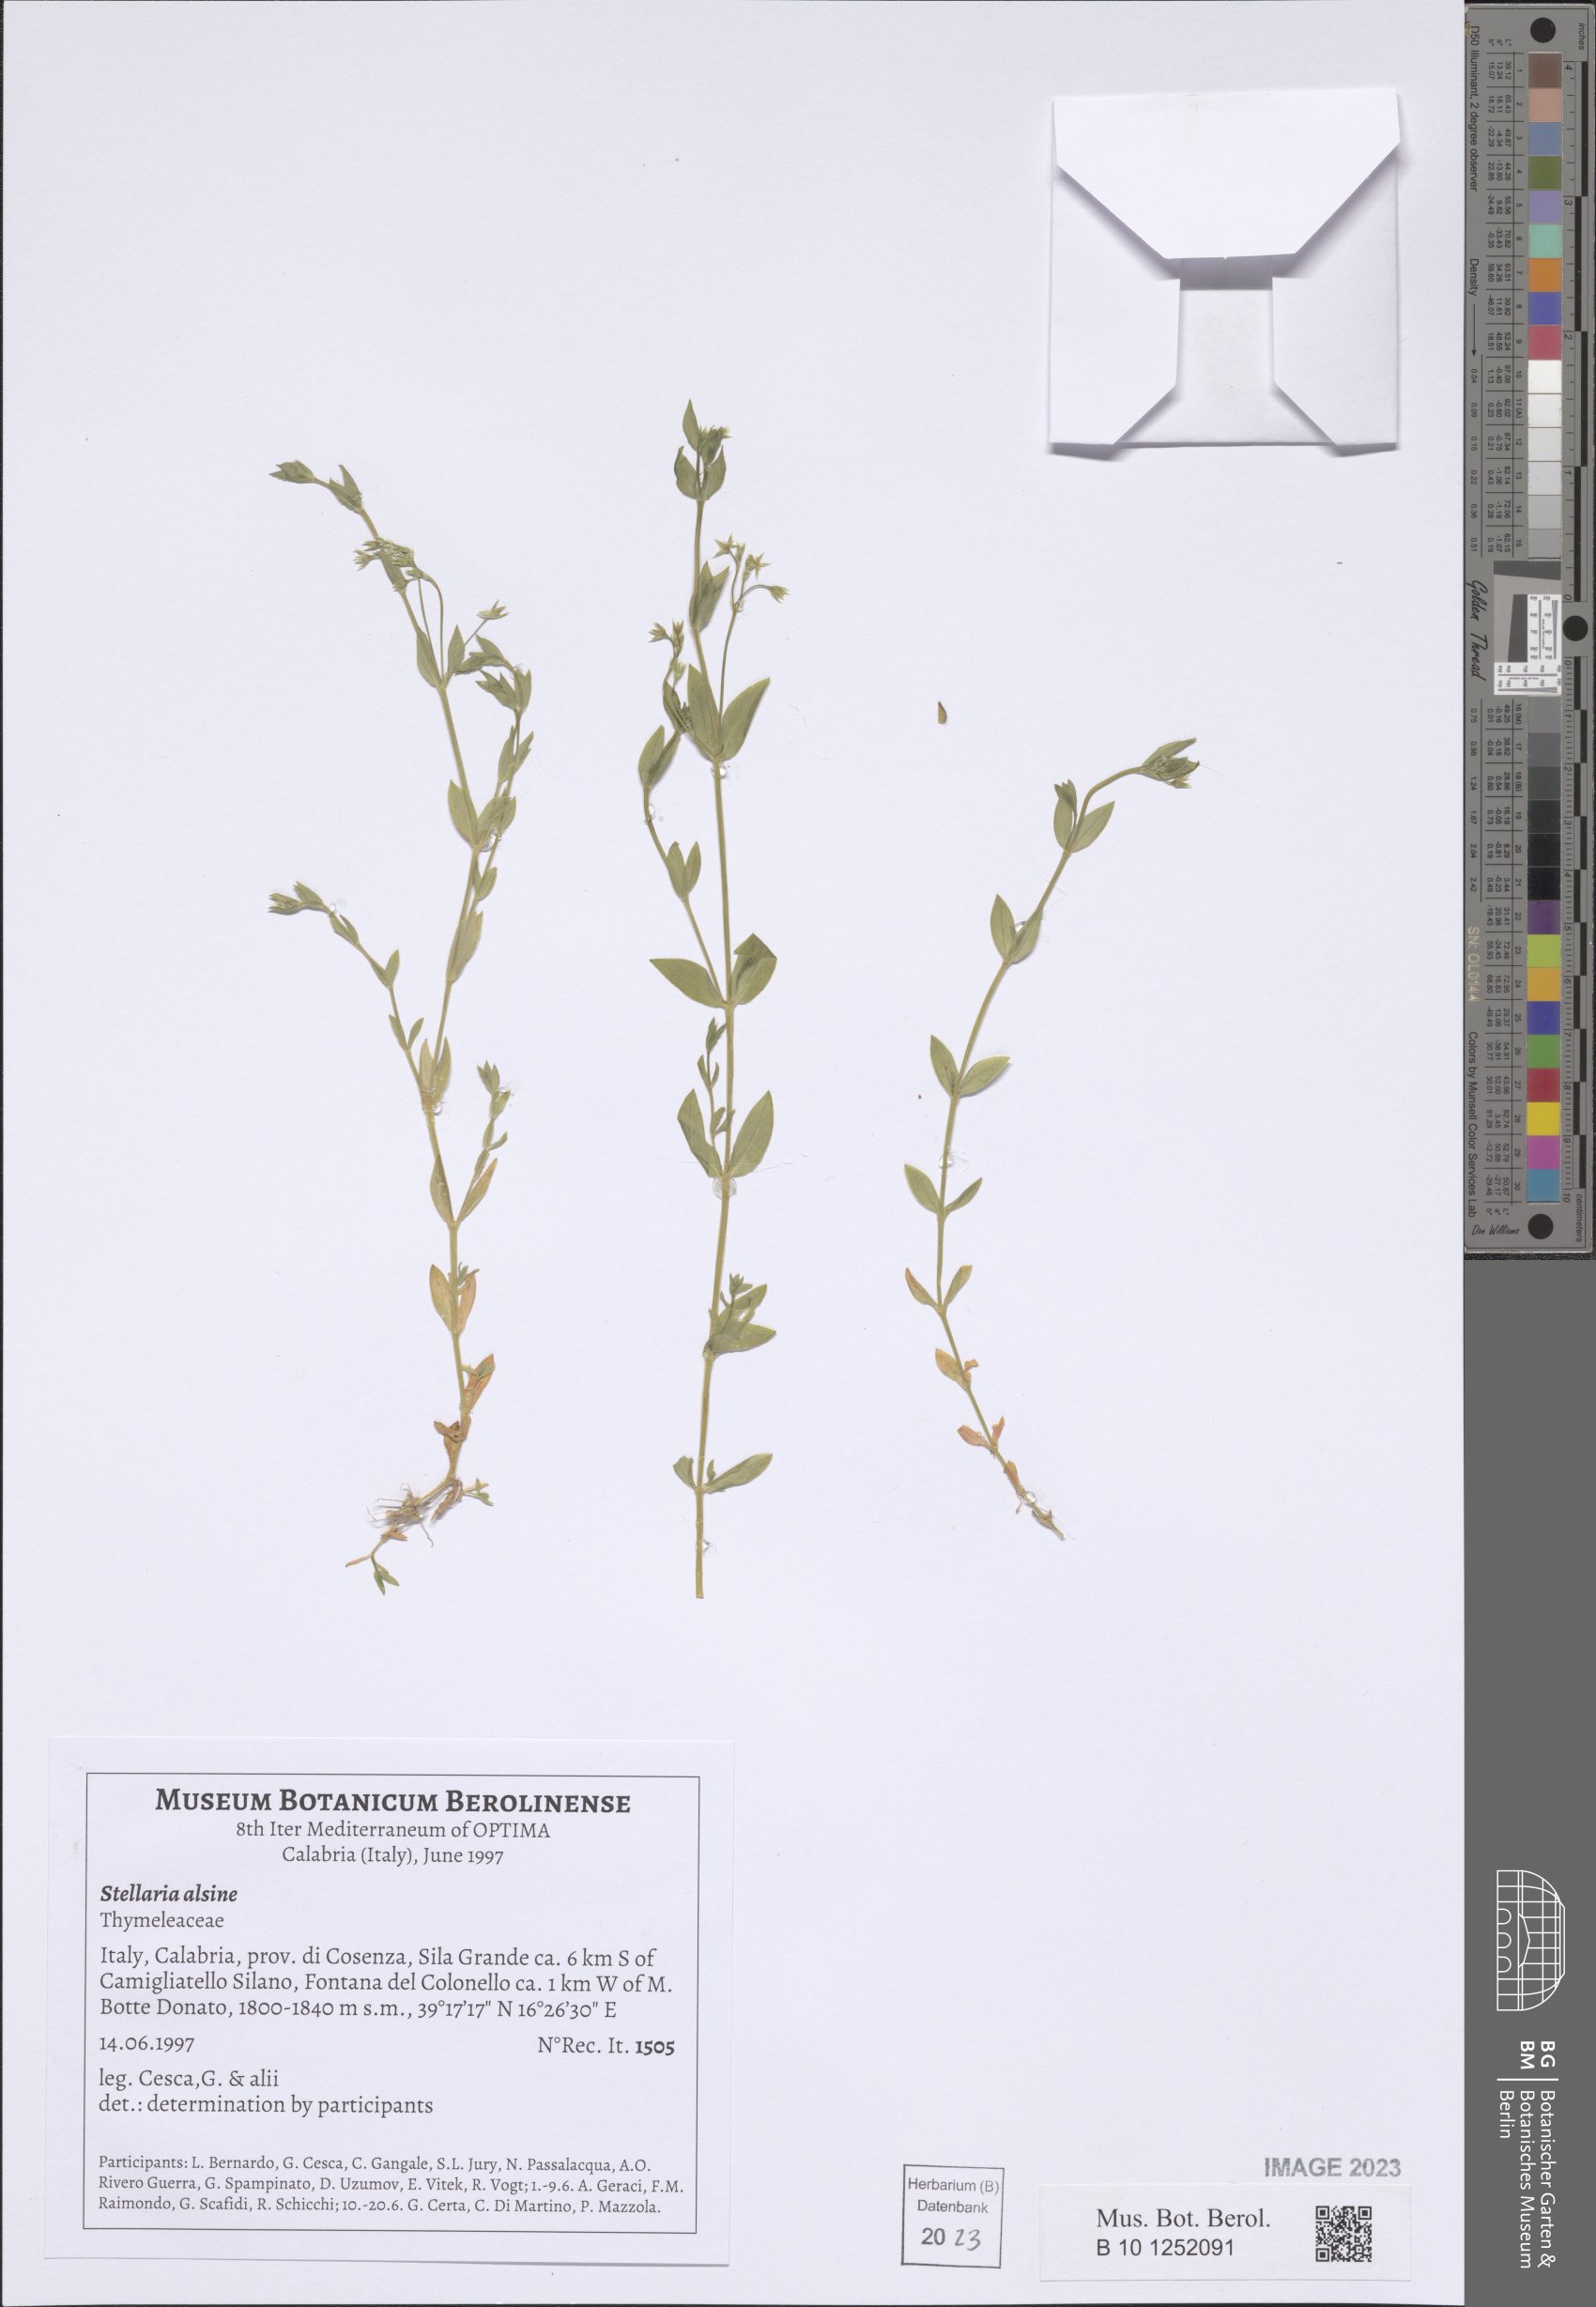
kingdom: Plantae
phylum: Tracheophyta
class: Magnoliopsida
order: Caryophyllales
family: Caryophyllaceae
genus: Stellaria
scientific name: Stellaria alsine
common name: Bog stitchwort
